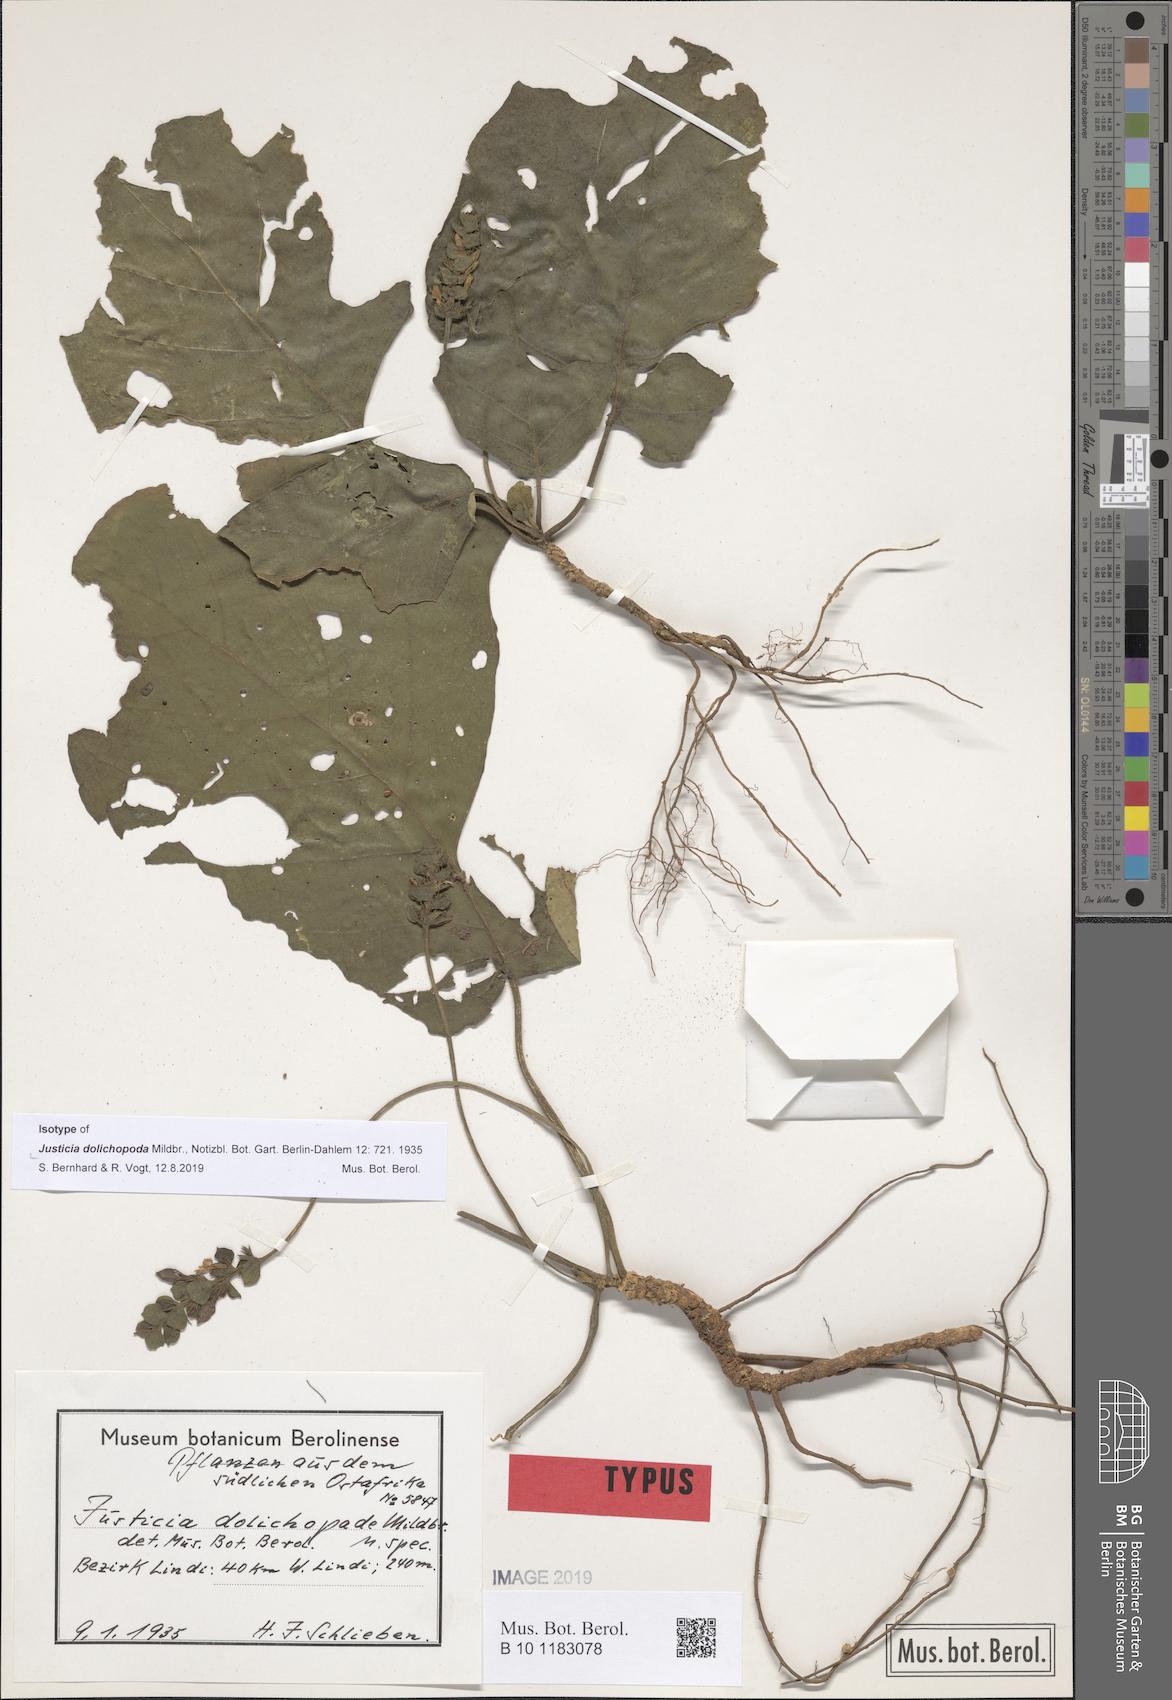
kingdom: Plantae
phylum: Tracheophyta
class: Magnoliopsida
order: Lamiales
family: Acanthaceae
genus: Nicoteba
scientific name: Nicoteba fittonioides
